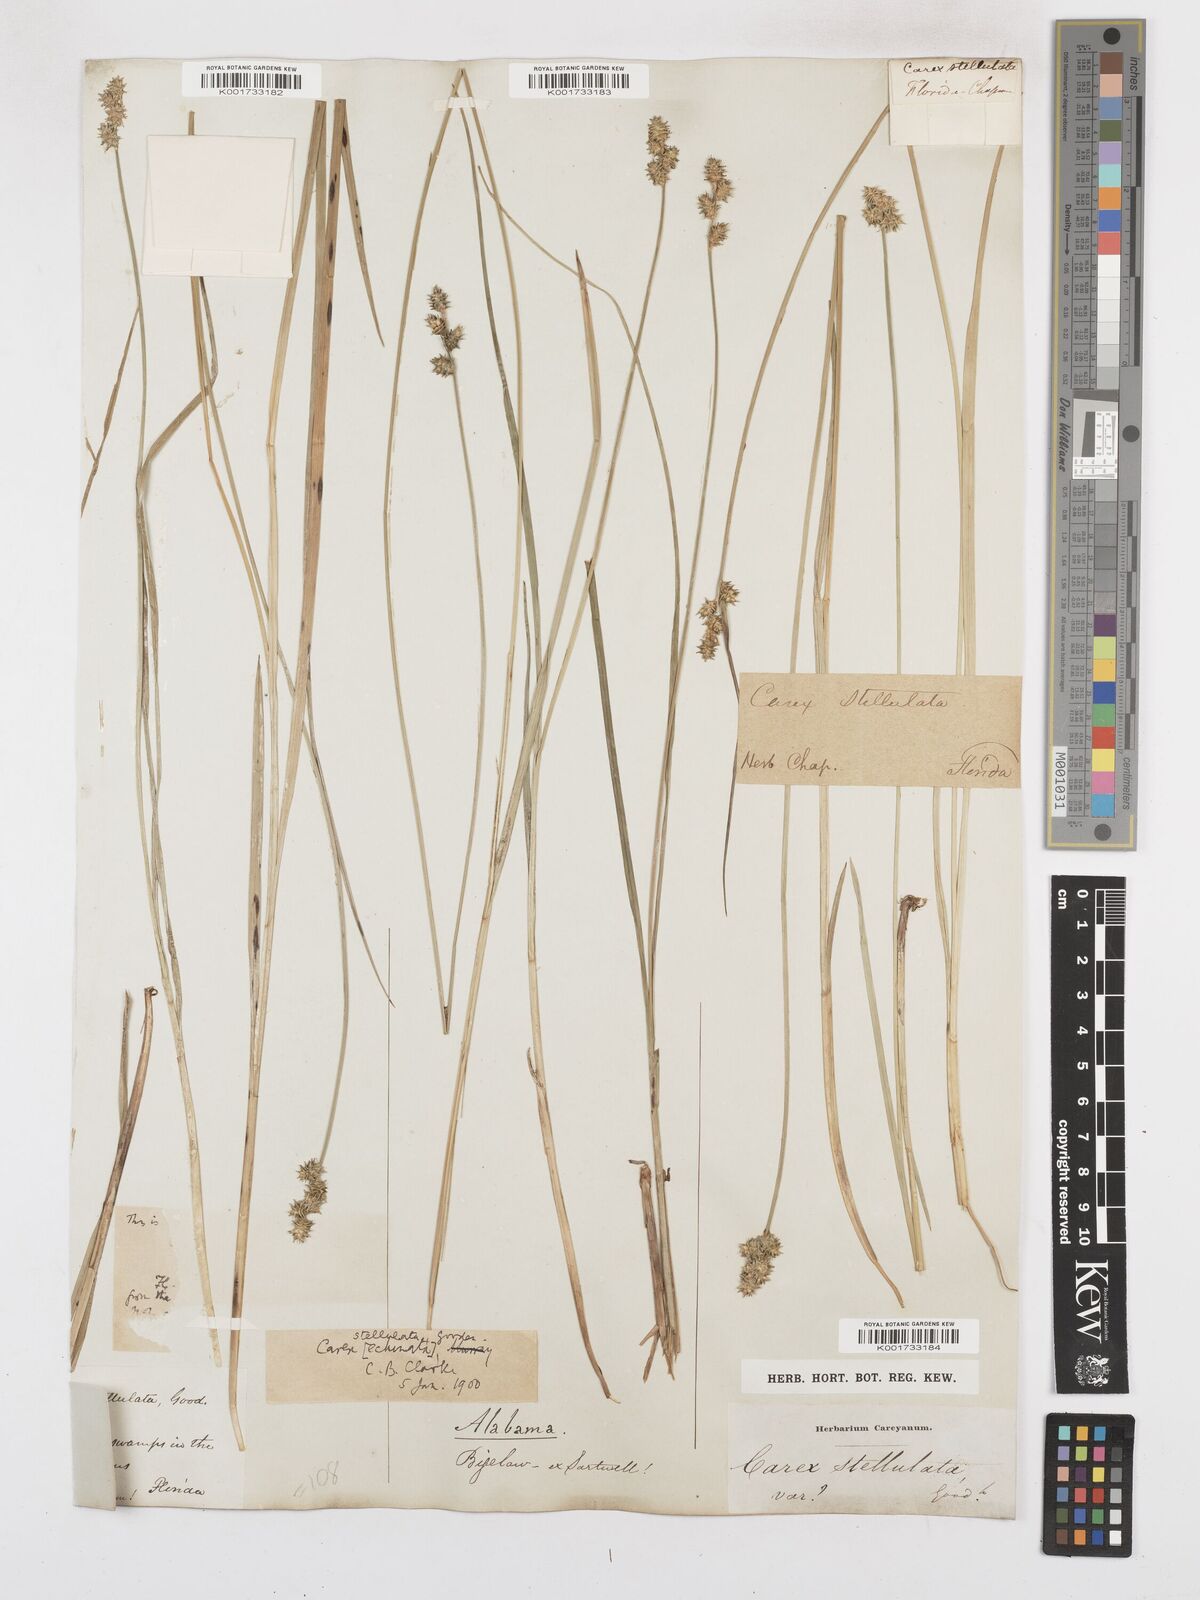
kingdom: Plantae
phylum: Tracheophyta
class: Liliopsida
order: Poales
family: Cyperaceae
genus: Carex
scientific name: Carex atlantica
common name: Atlantic sedge
